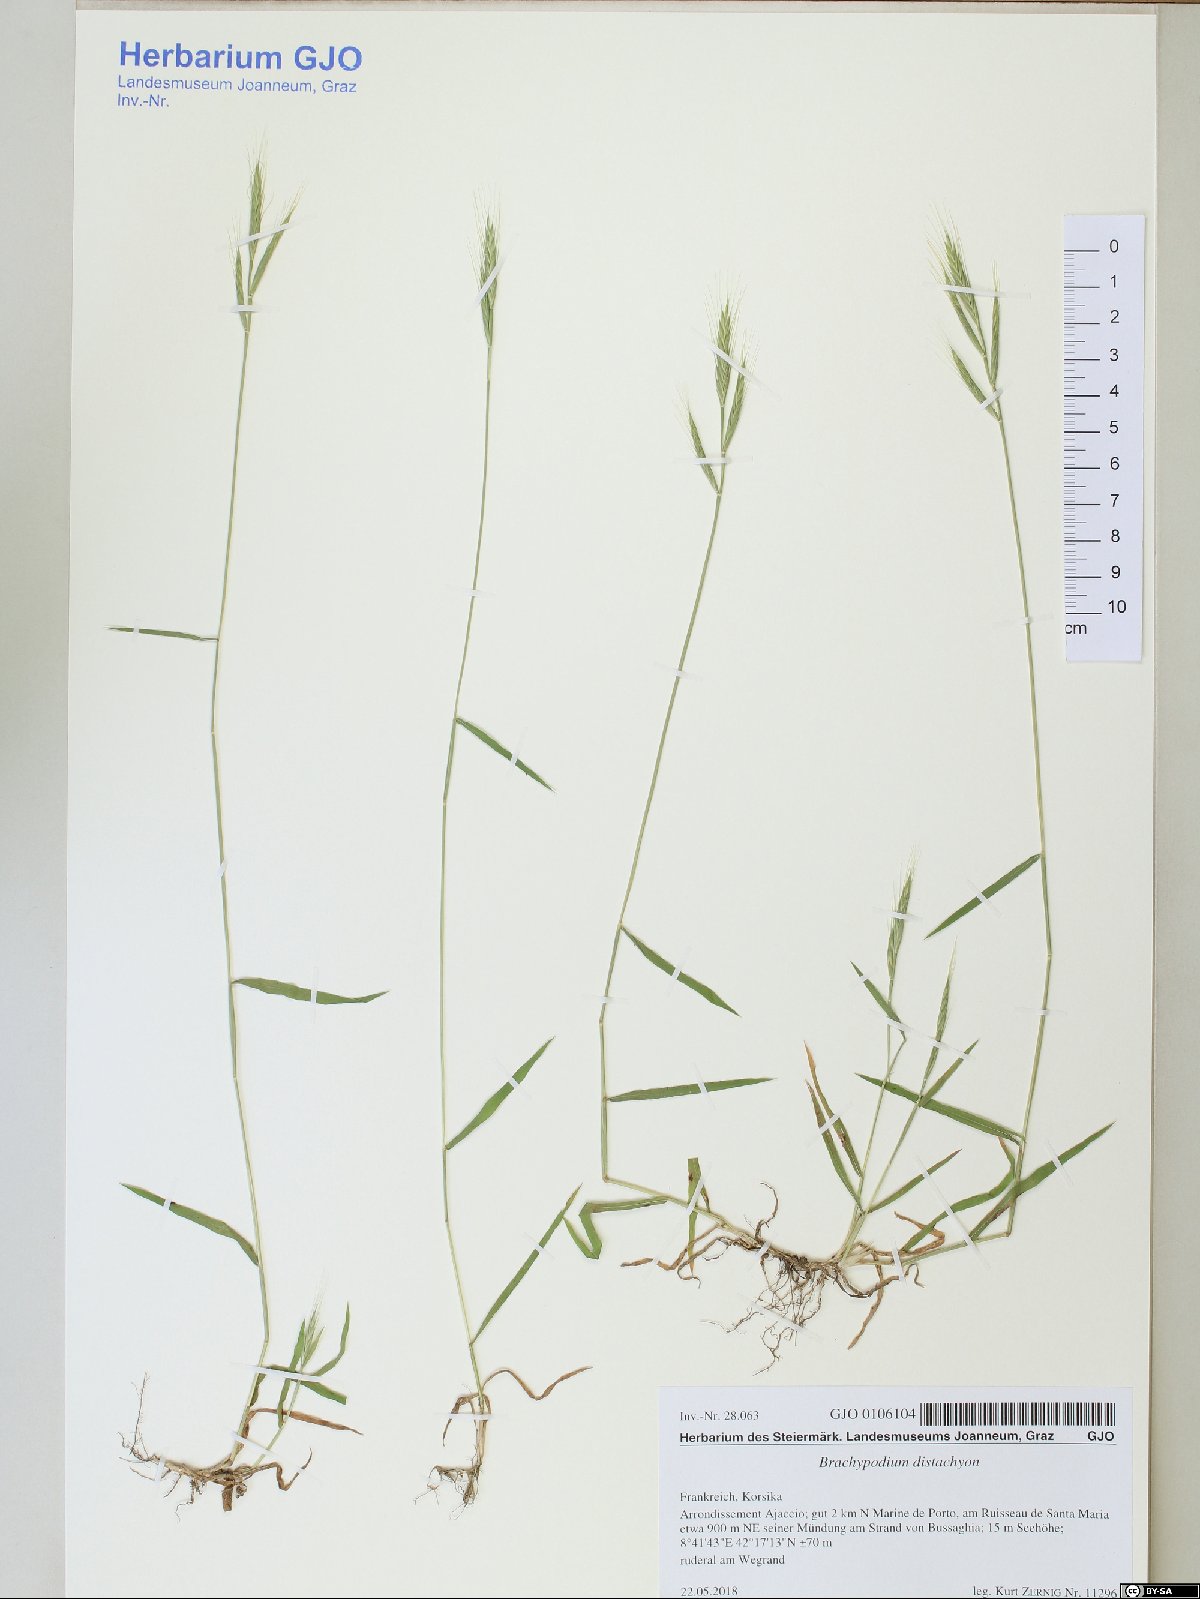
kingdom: Plantae
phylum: Tracheophyta
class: Liliopsida
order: Poales
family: Poaceae
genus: Brachypodium
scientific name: Brachypodium distachyon
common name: Stiff brome
